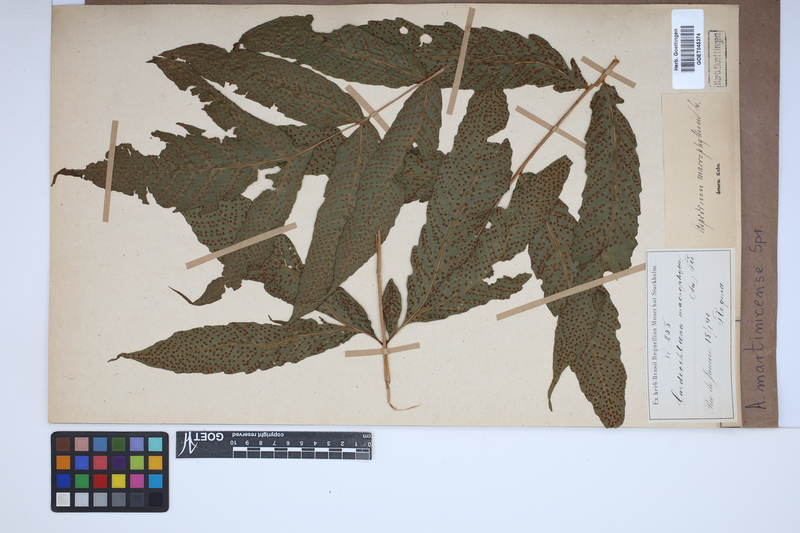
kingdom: Plantae
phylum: Tracheophyta
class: Polypodiopsida
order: Polypodiales
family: Tectariaceae
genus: Tectaria
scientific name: Tectaria incisa
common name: Incised halberd fern
